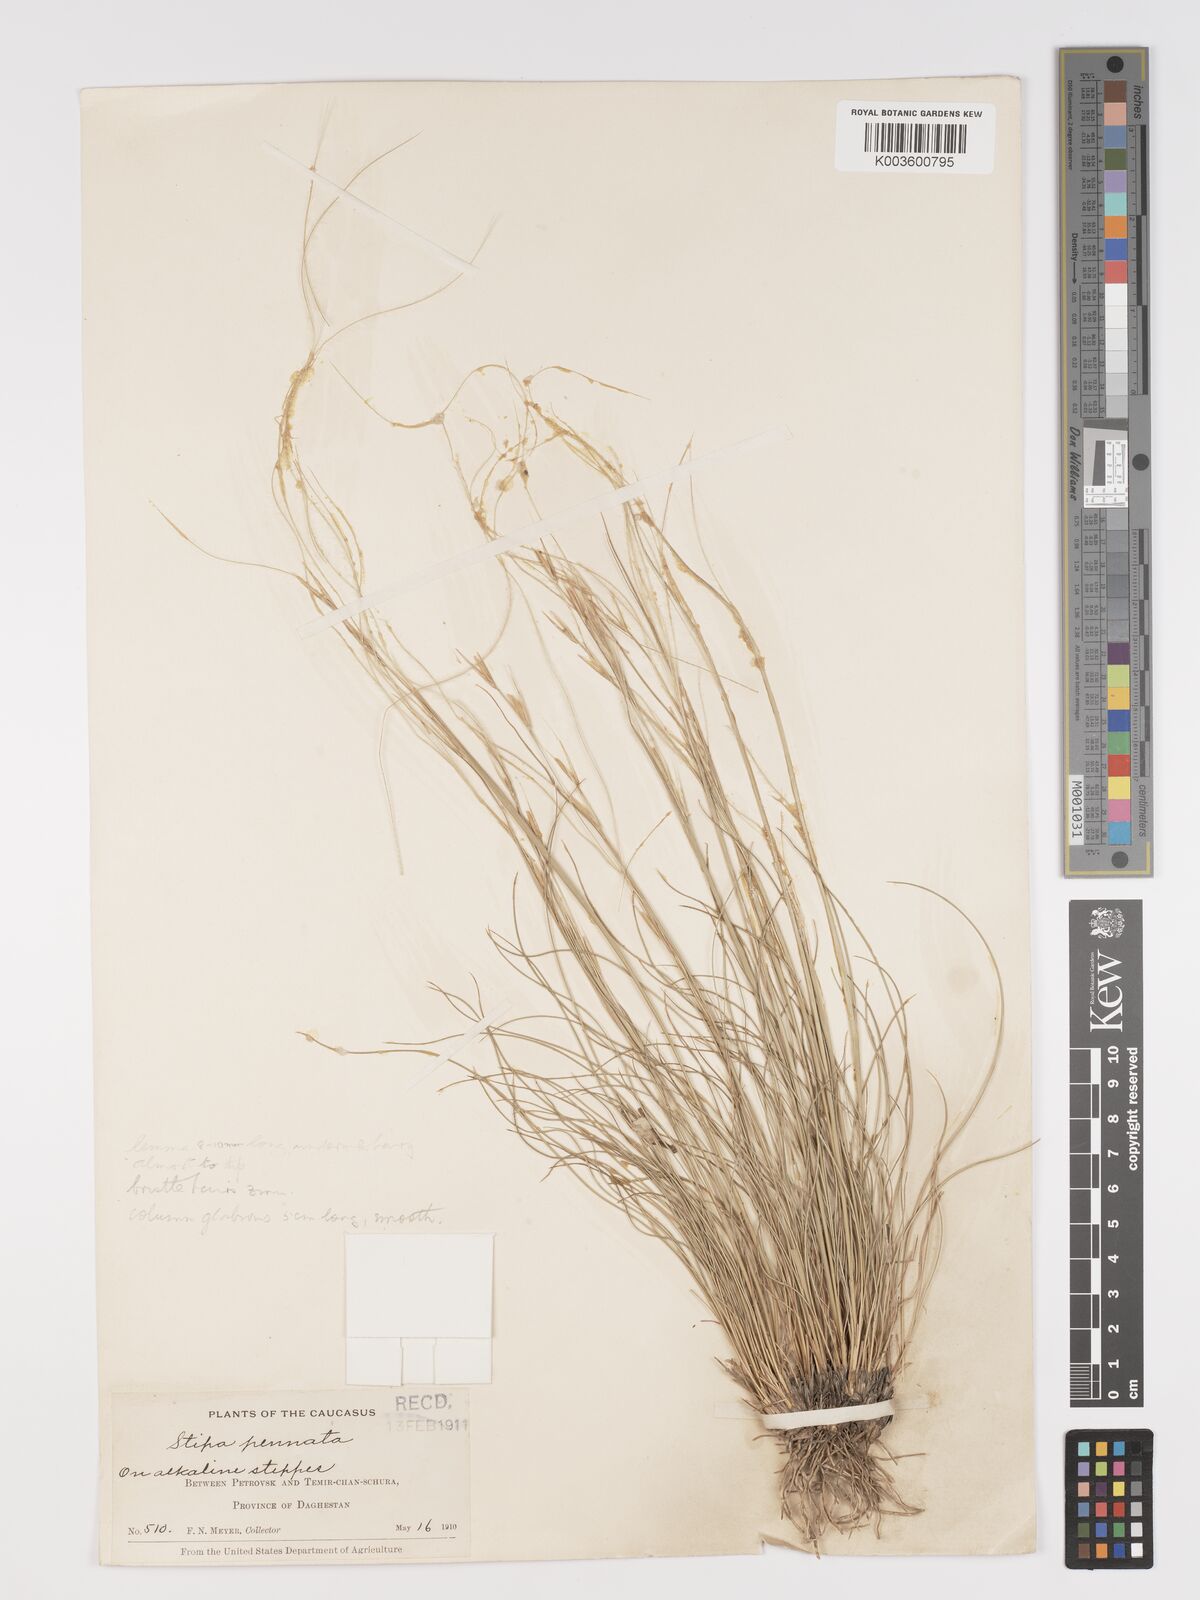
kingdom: Plantae
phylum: Tracheophyta
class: Liliopsida
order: Poales
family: Poaceae
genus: Stipa
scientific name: Stipa
